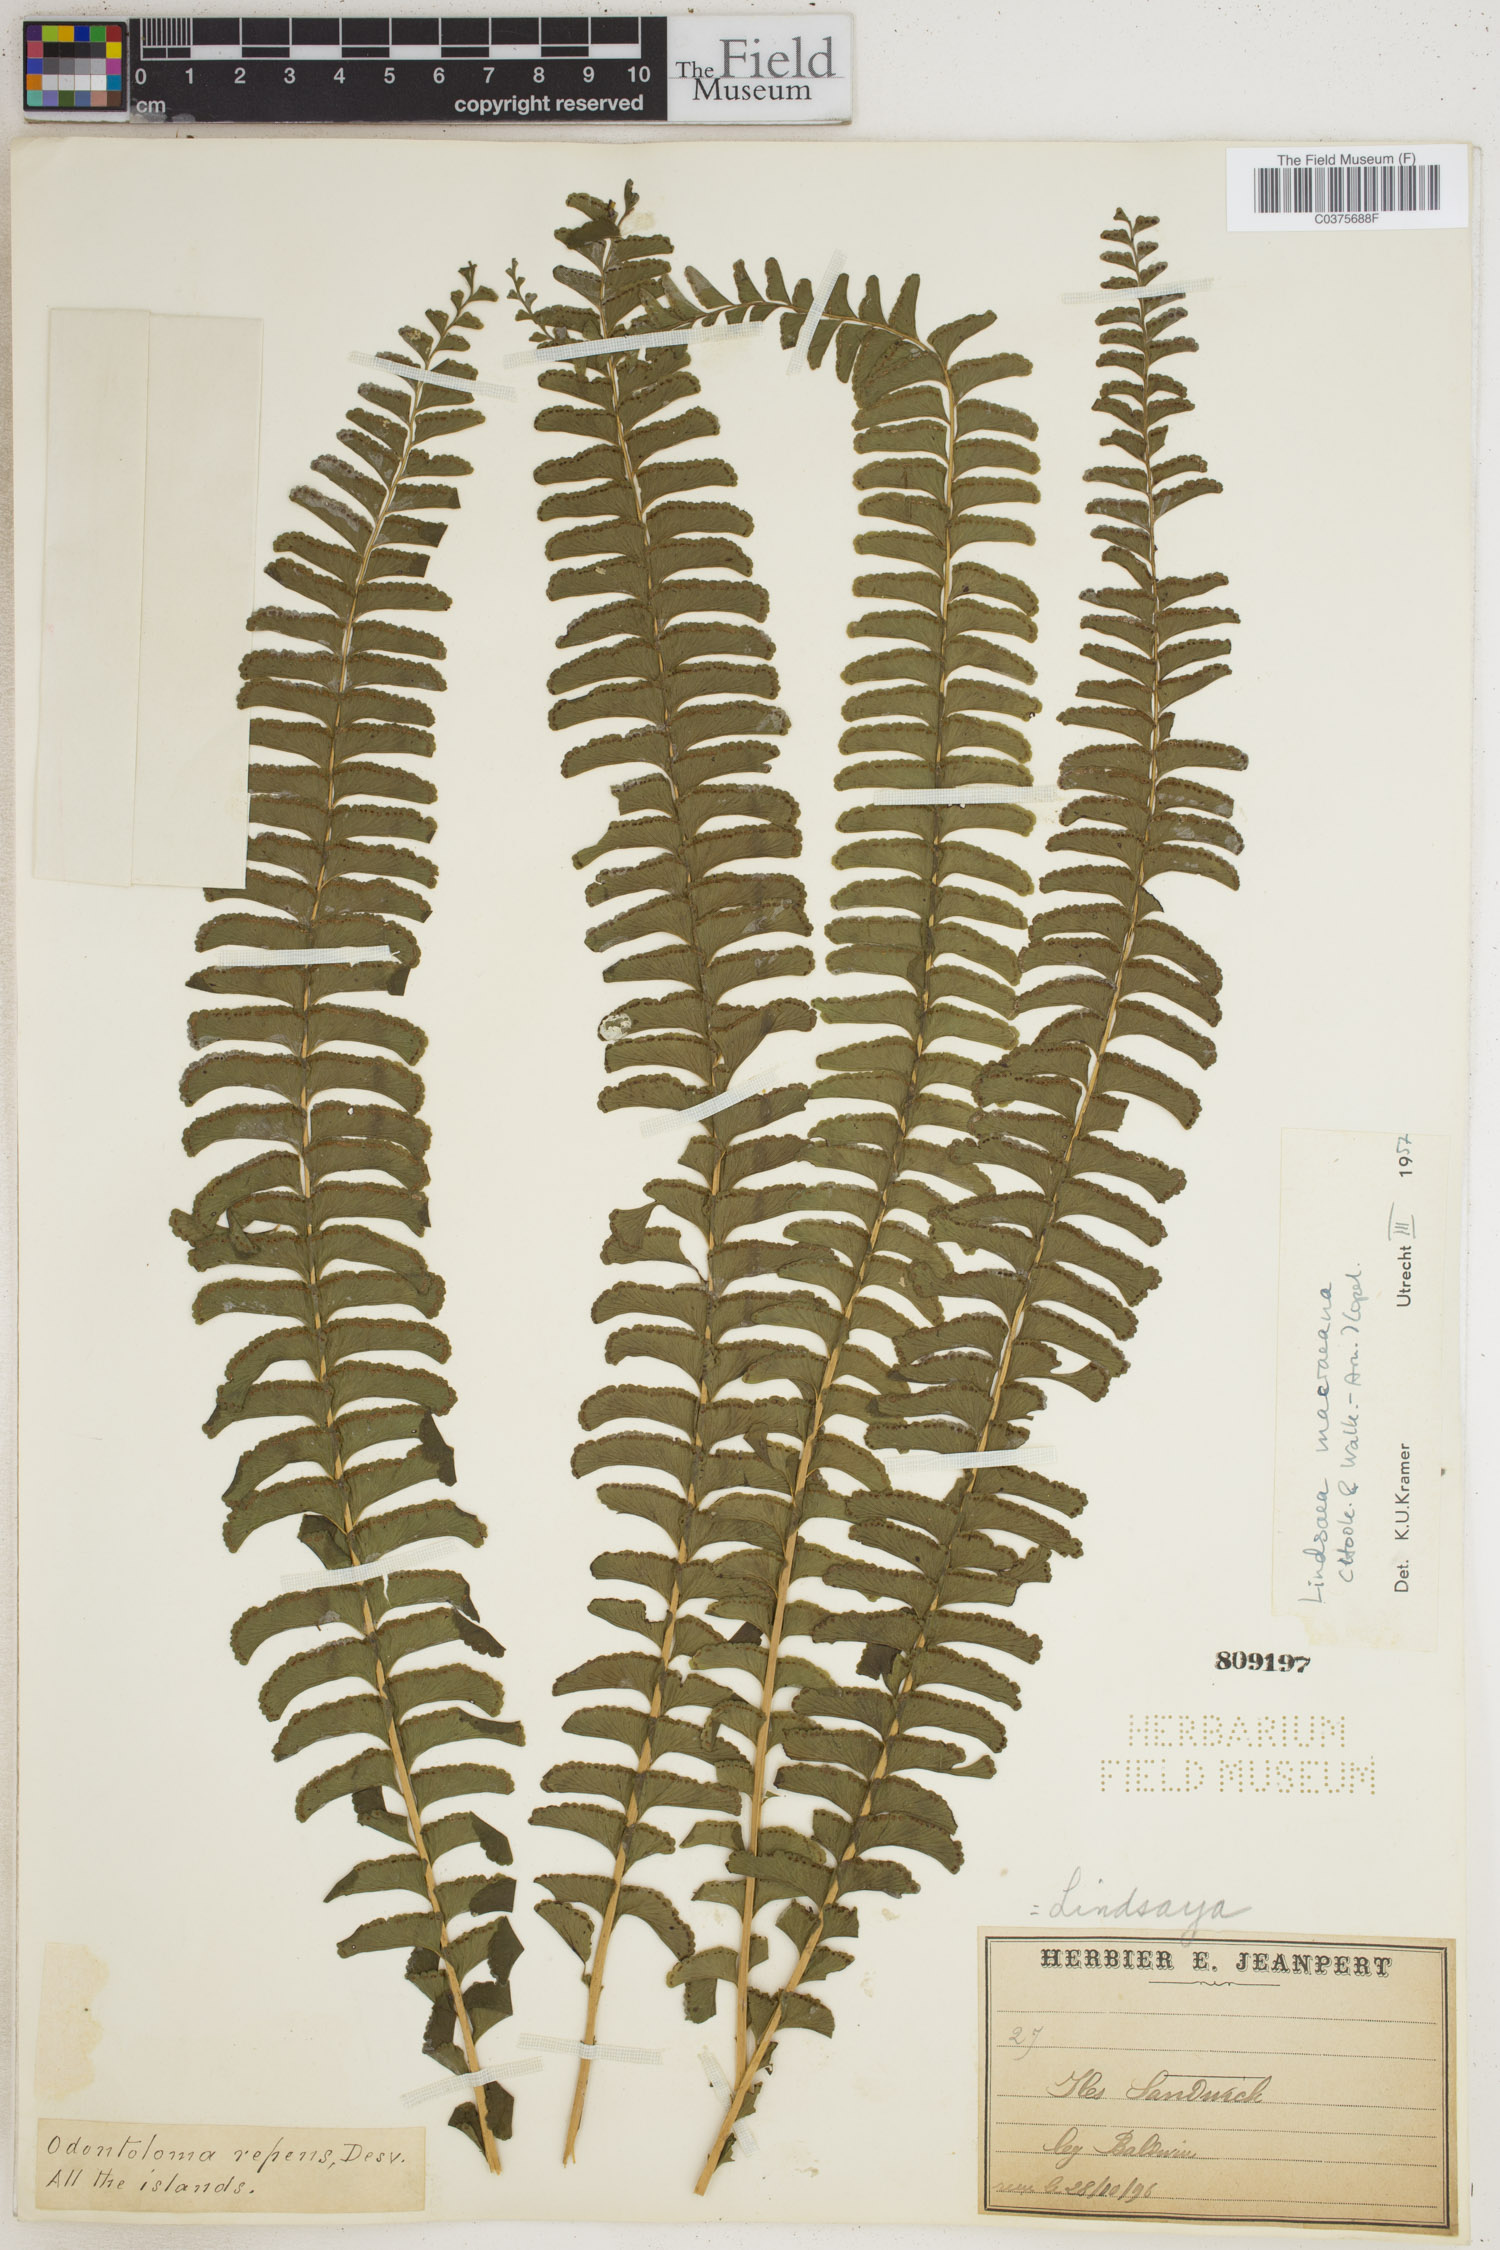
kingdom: Plantae
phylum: Tracheophyta
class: Polypodiopsida
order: Polypodiales
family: Lindsaeaceae
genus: Lindsaea
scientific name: Lindsaea macraeana
